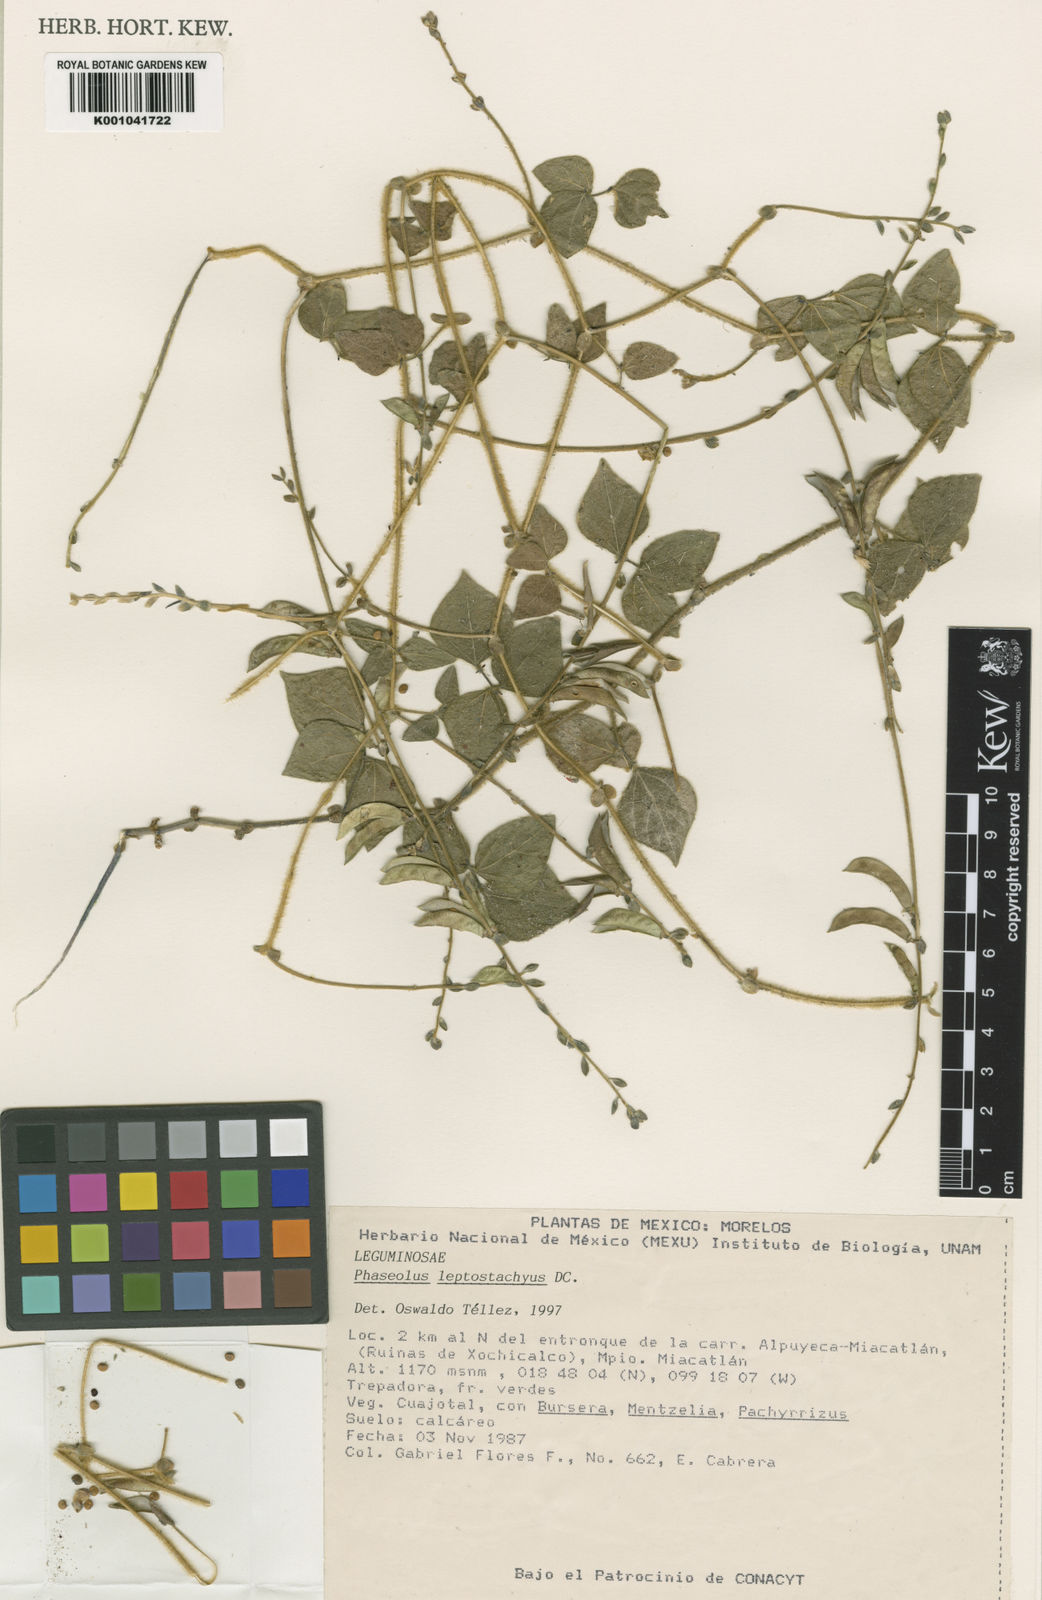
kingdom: Plantae
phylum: Tracheophyta
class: Magnoliopsida
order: Fabales
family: Fabaceae
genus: Phaseolus
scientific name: Phaseolus leptostachyus
